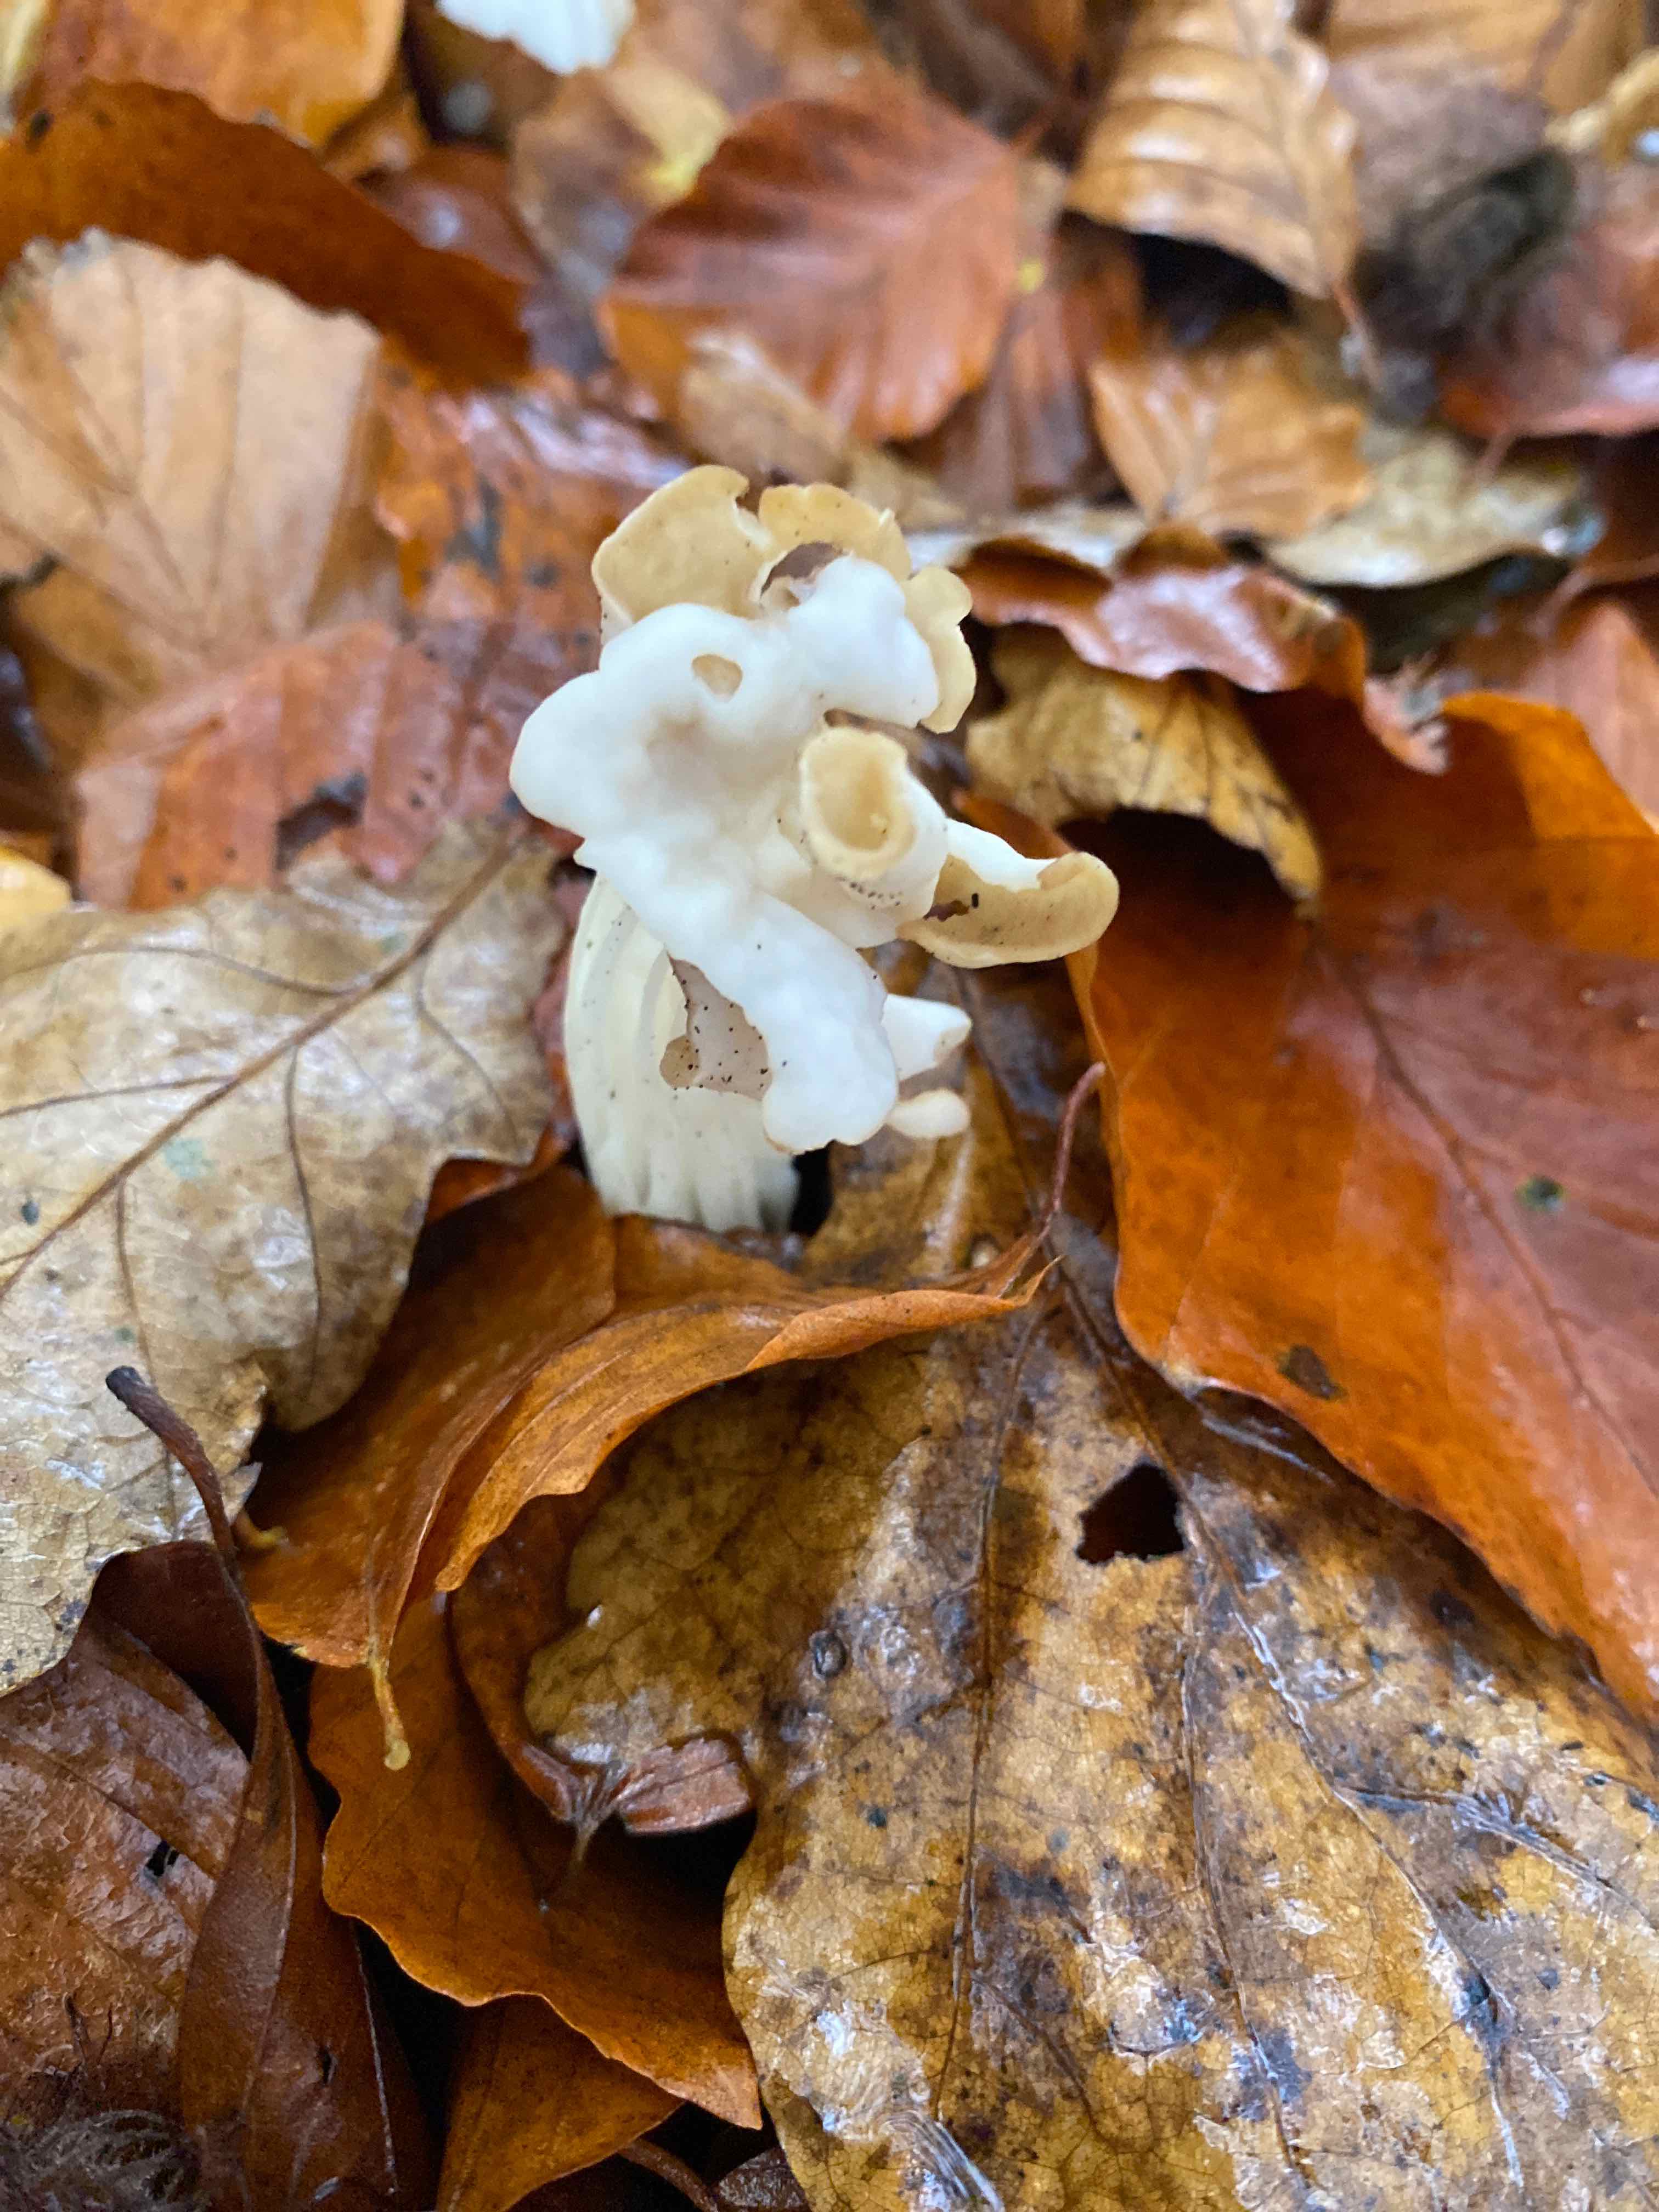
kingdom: Fungi
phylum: Ascomycota
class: Pezizomycetes
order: Pezizales
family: Helvellaceae
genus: Helvella
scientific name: Helvella crispa
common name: kruset foldhat
